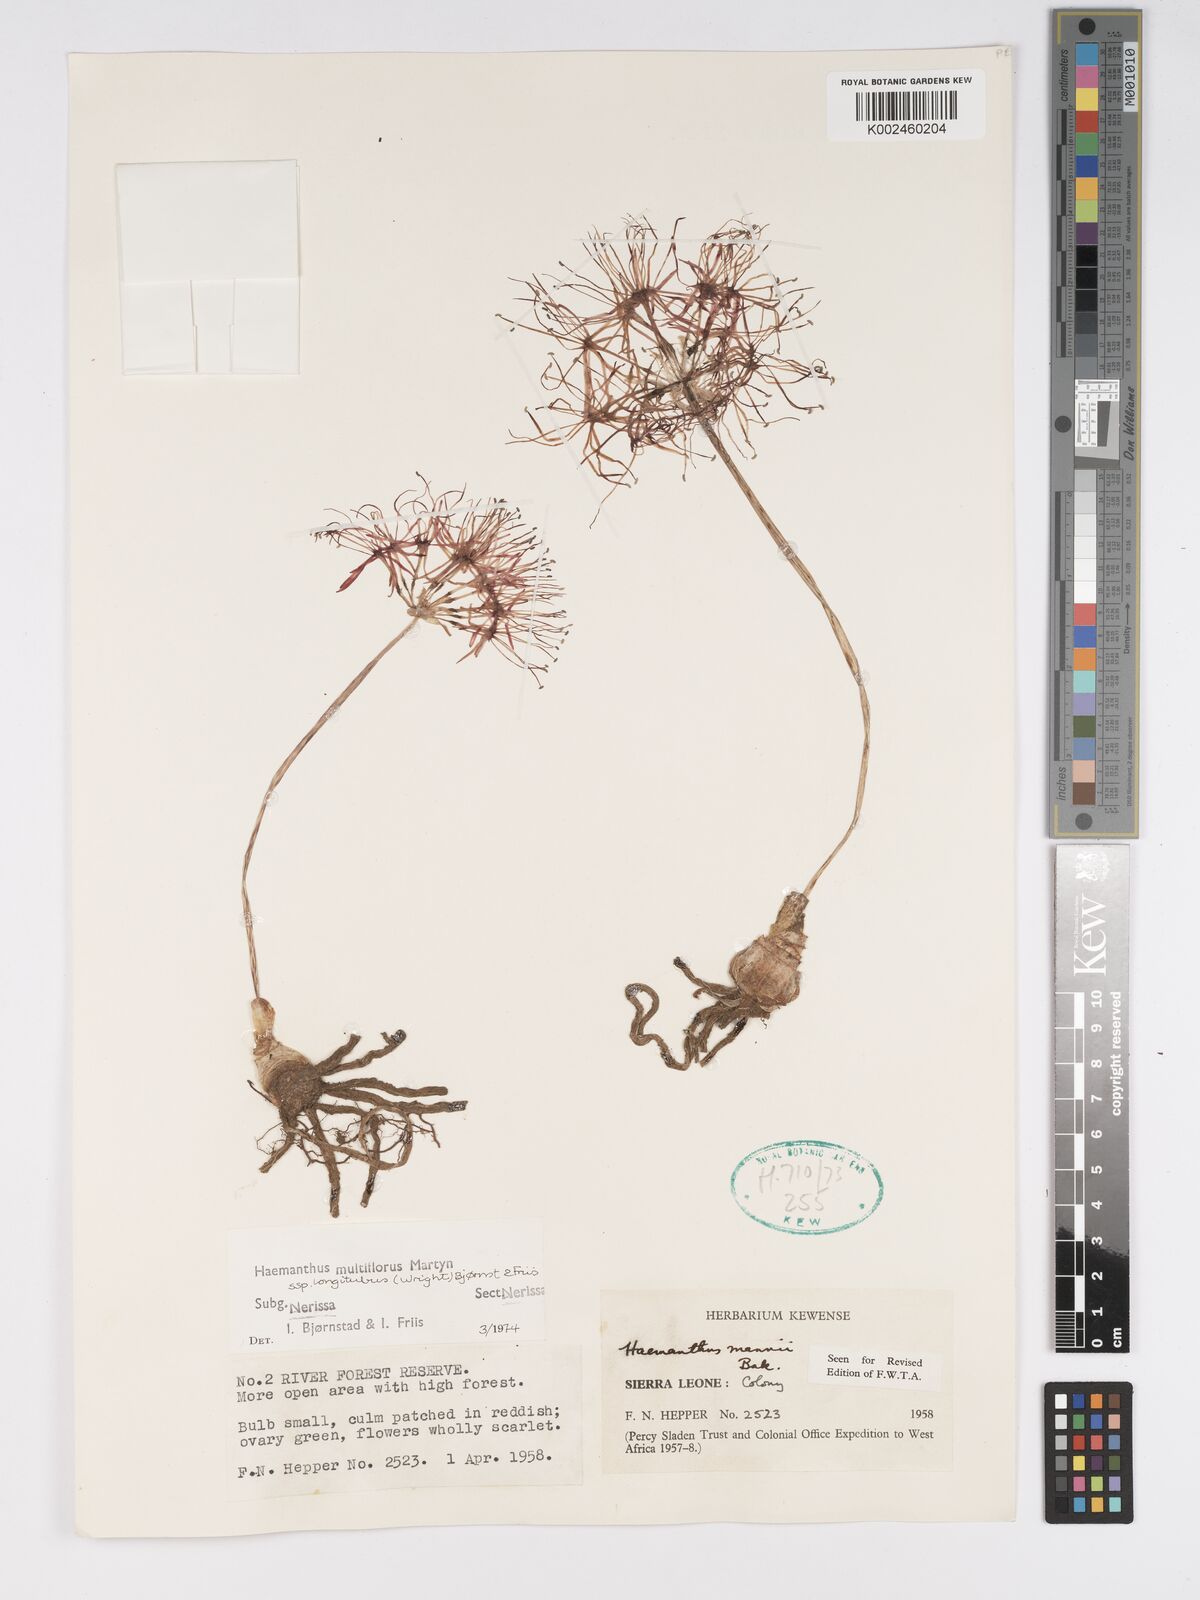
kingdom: Plantae
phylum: Tracheophyta
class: Liliopsida
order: Asparagales
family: Amaryllidaceae
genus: Scadoxus
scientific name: Scadoxus multiflorus
